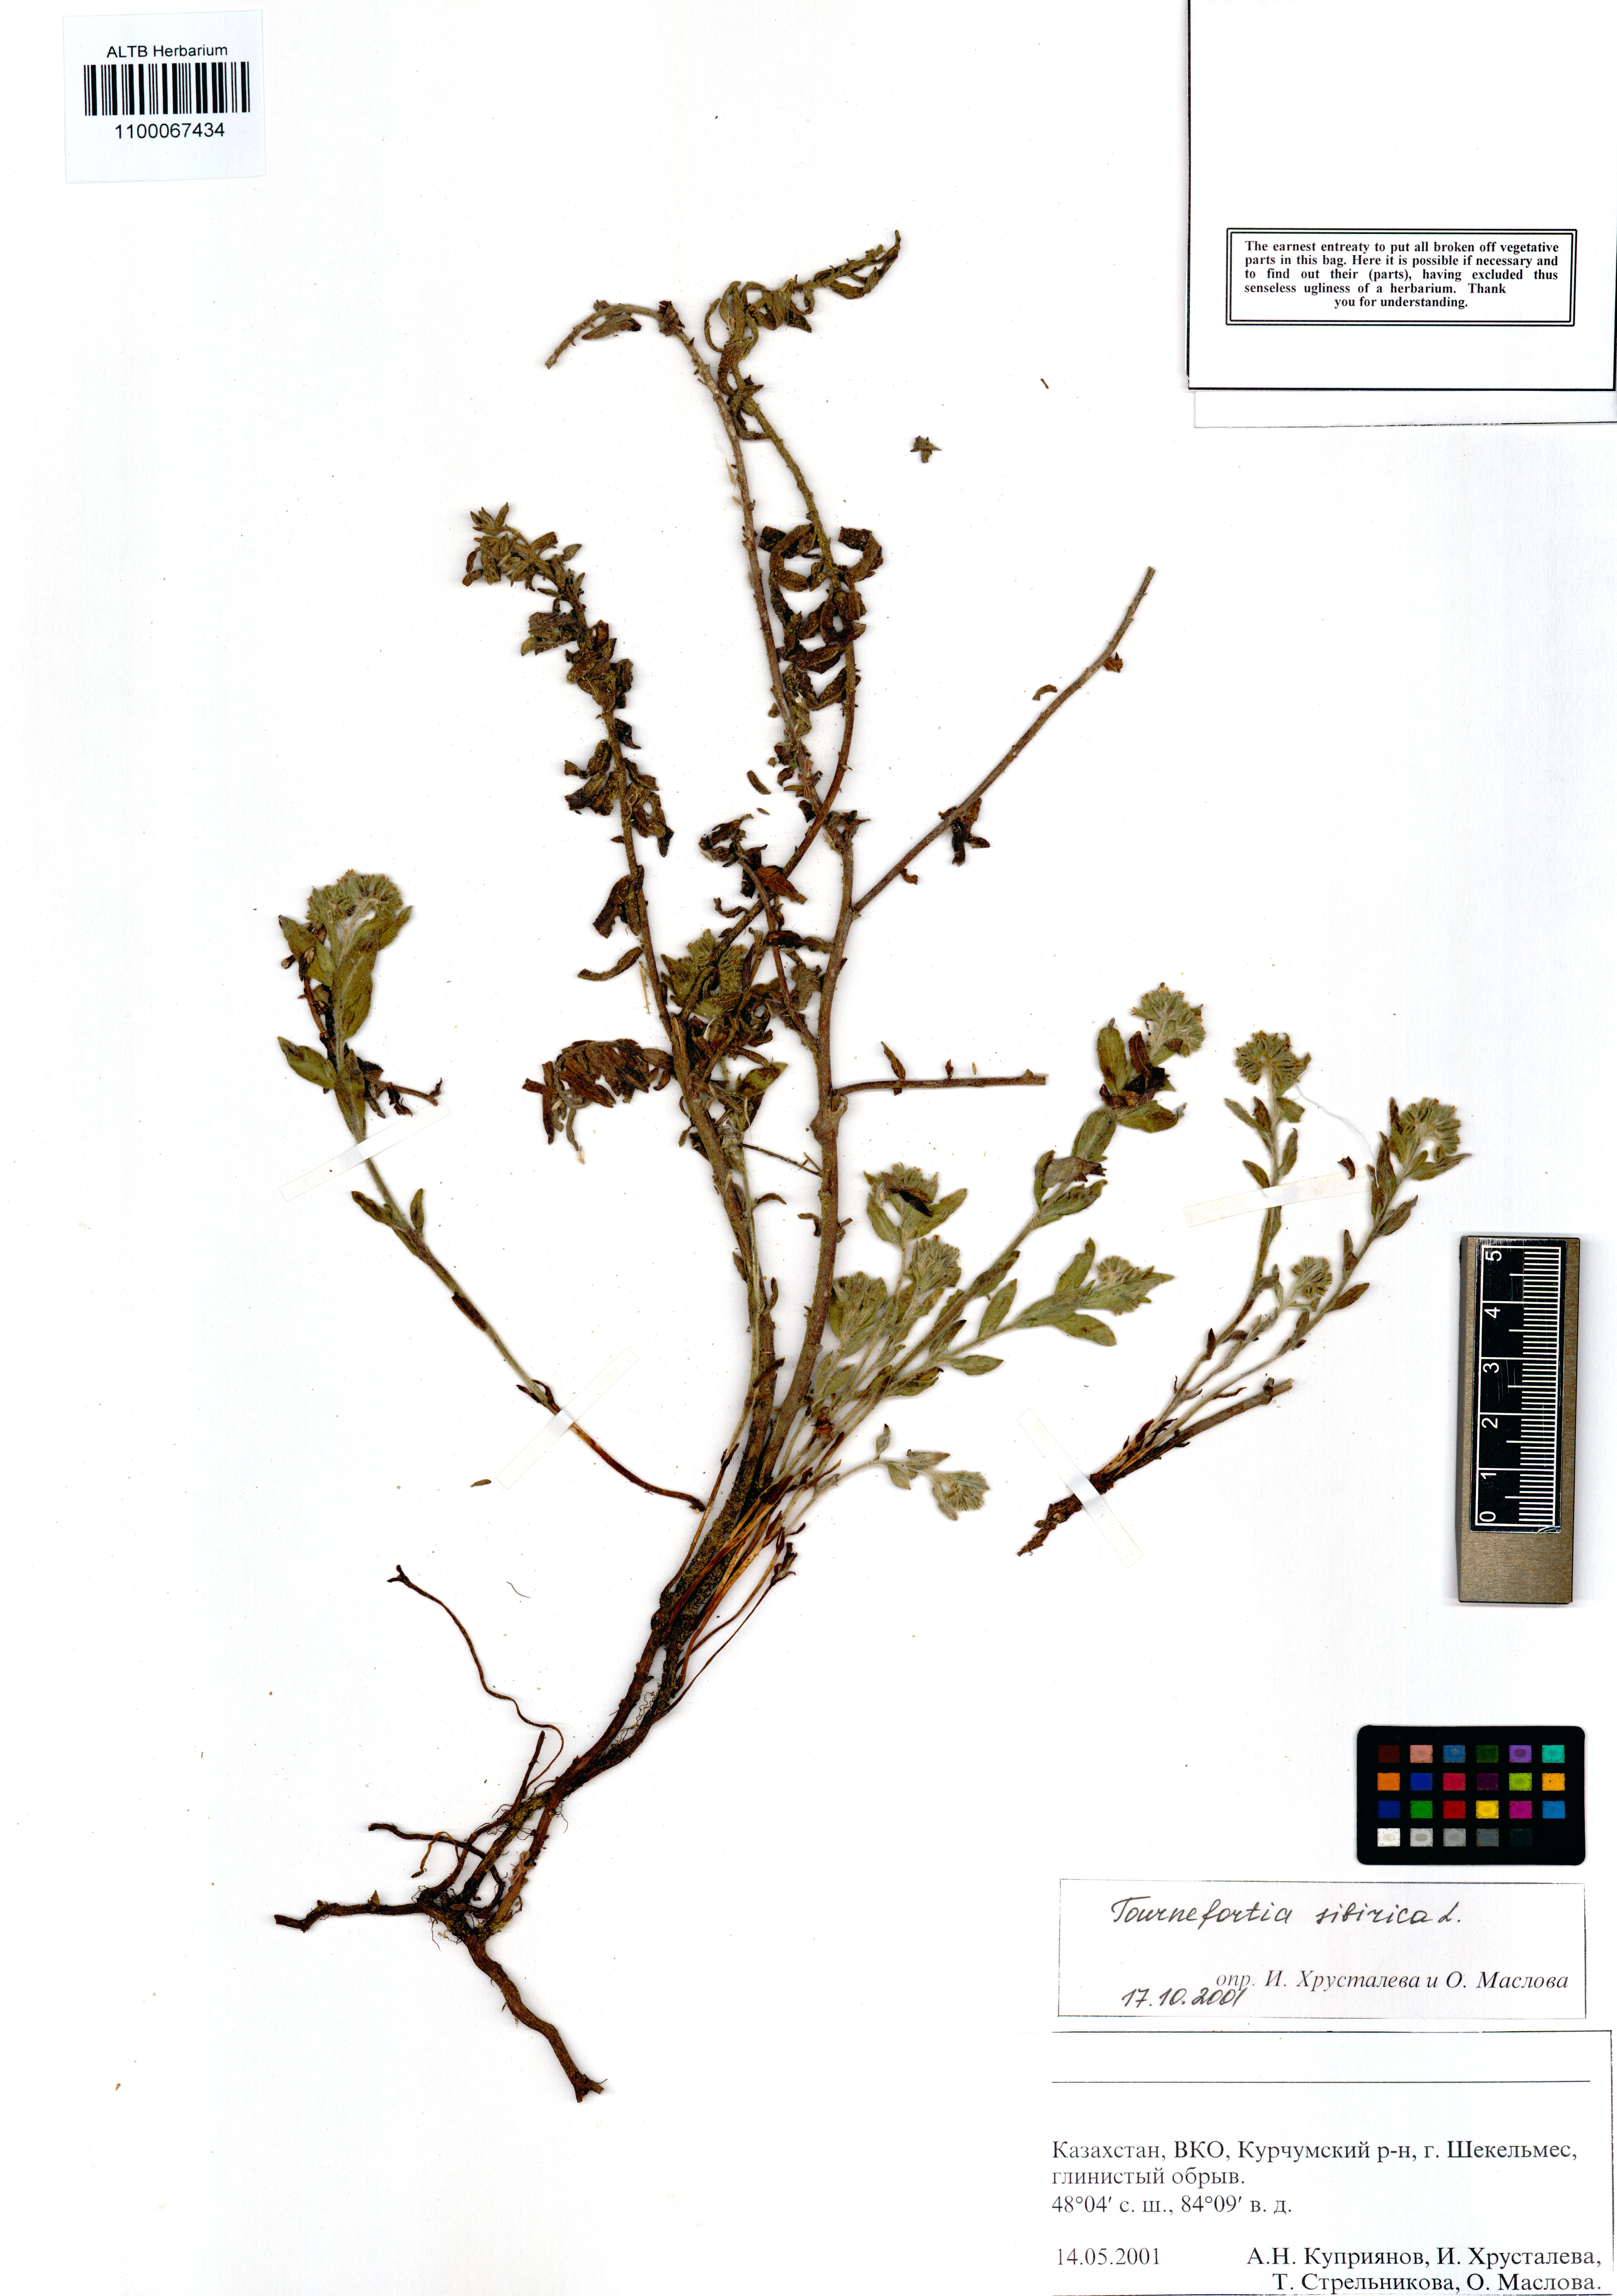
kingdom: Plantae
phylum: Tracheophyta
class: Magnoliopsida
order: Boraginales
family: Heliotropiaceae
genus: Tournefortia
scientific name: Tournefortia sibirica
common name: Siberian sea rosemary
